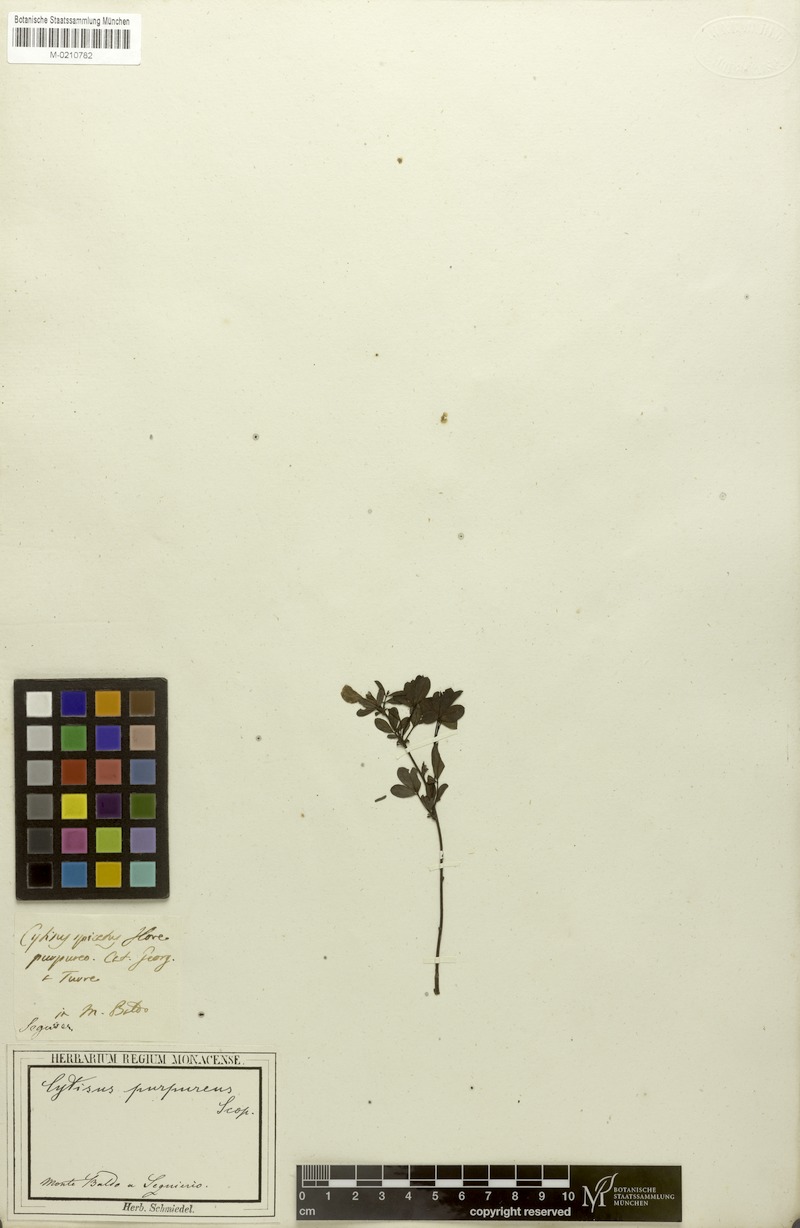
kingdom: Plantae
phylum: Tracheophyta
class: Magnoliopsida
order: Fabales
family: Fabaceae
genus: Chamaecytisus
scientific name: Chamaecytisus purpureus
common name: Purple broom
